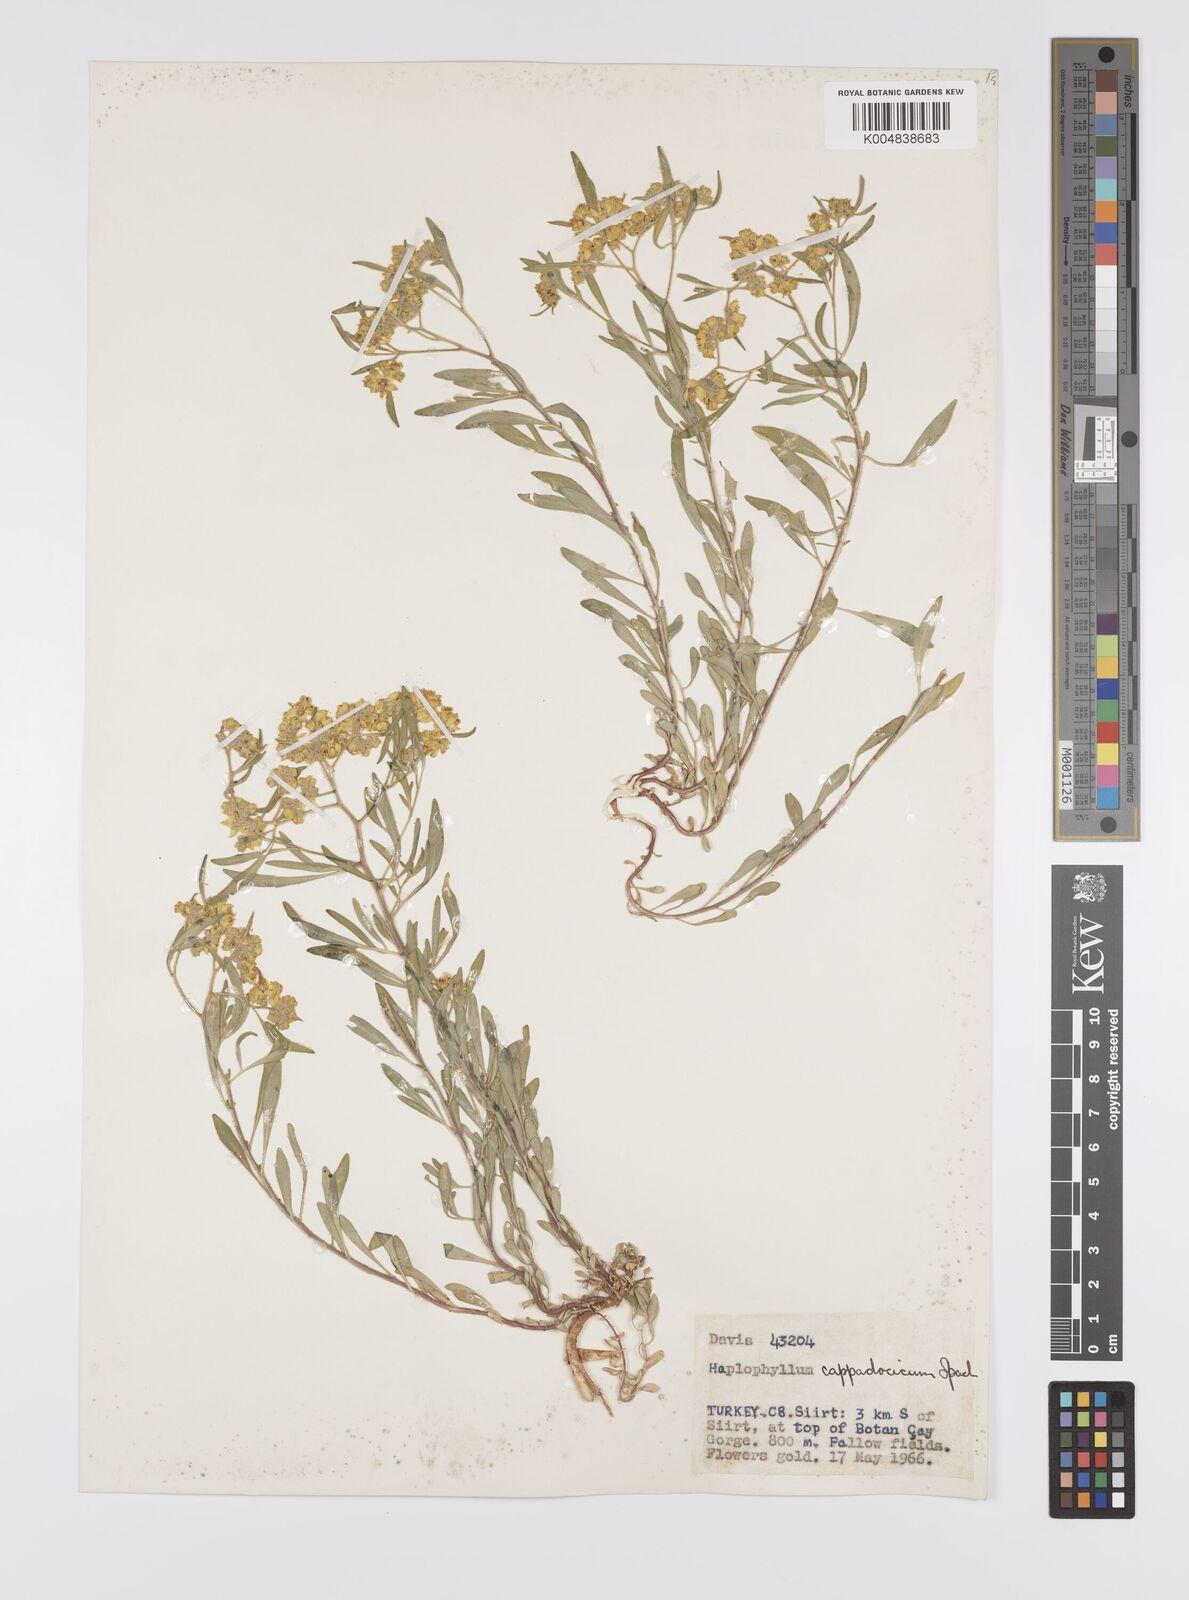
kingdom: Plantae
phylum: Tracheophyta
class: Magnoliopsida
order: Sapindales
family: Rutaceae
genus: Haplophyllum
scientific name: Haplophyllum cappadocicum
